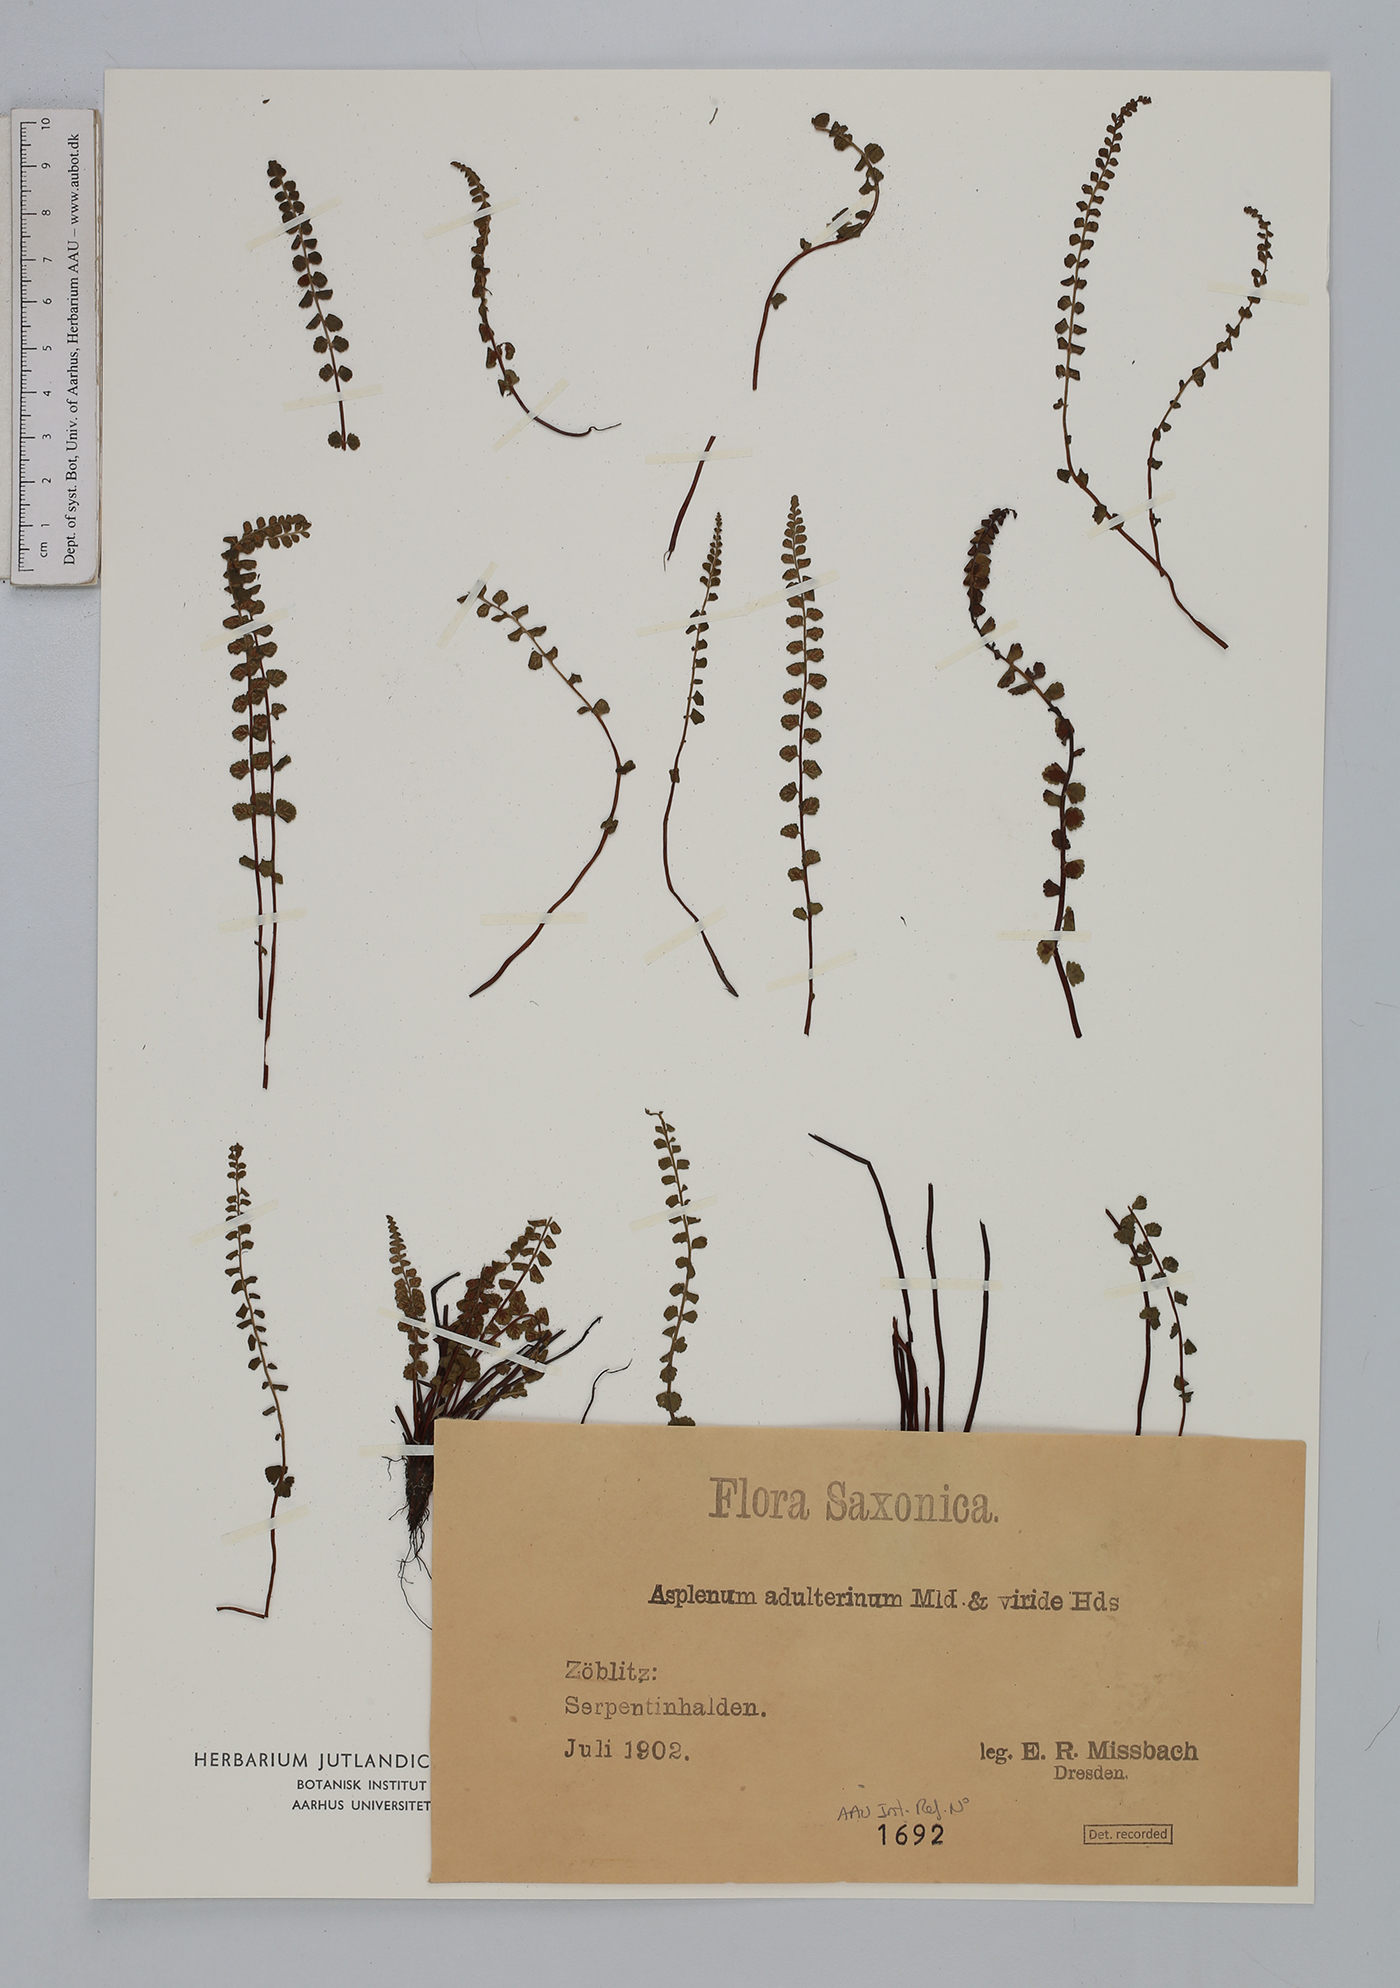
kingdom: Plantae
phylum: Tracheophyta
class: Polypodiopsida
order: Polypodiales
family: Aspleniaceae
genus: Asplenium
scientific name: Asplenium adulterinum
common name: Adulterated spleenwort
